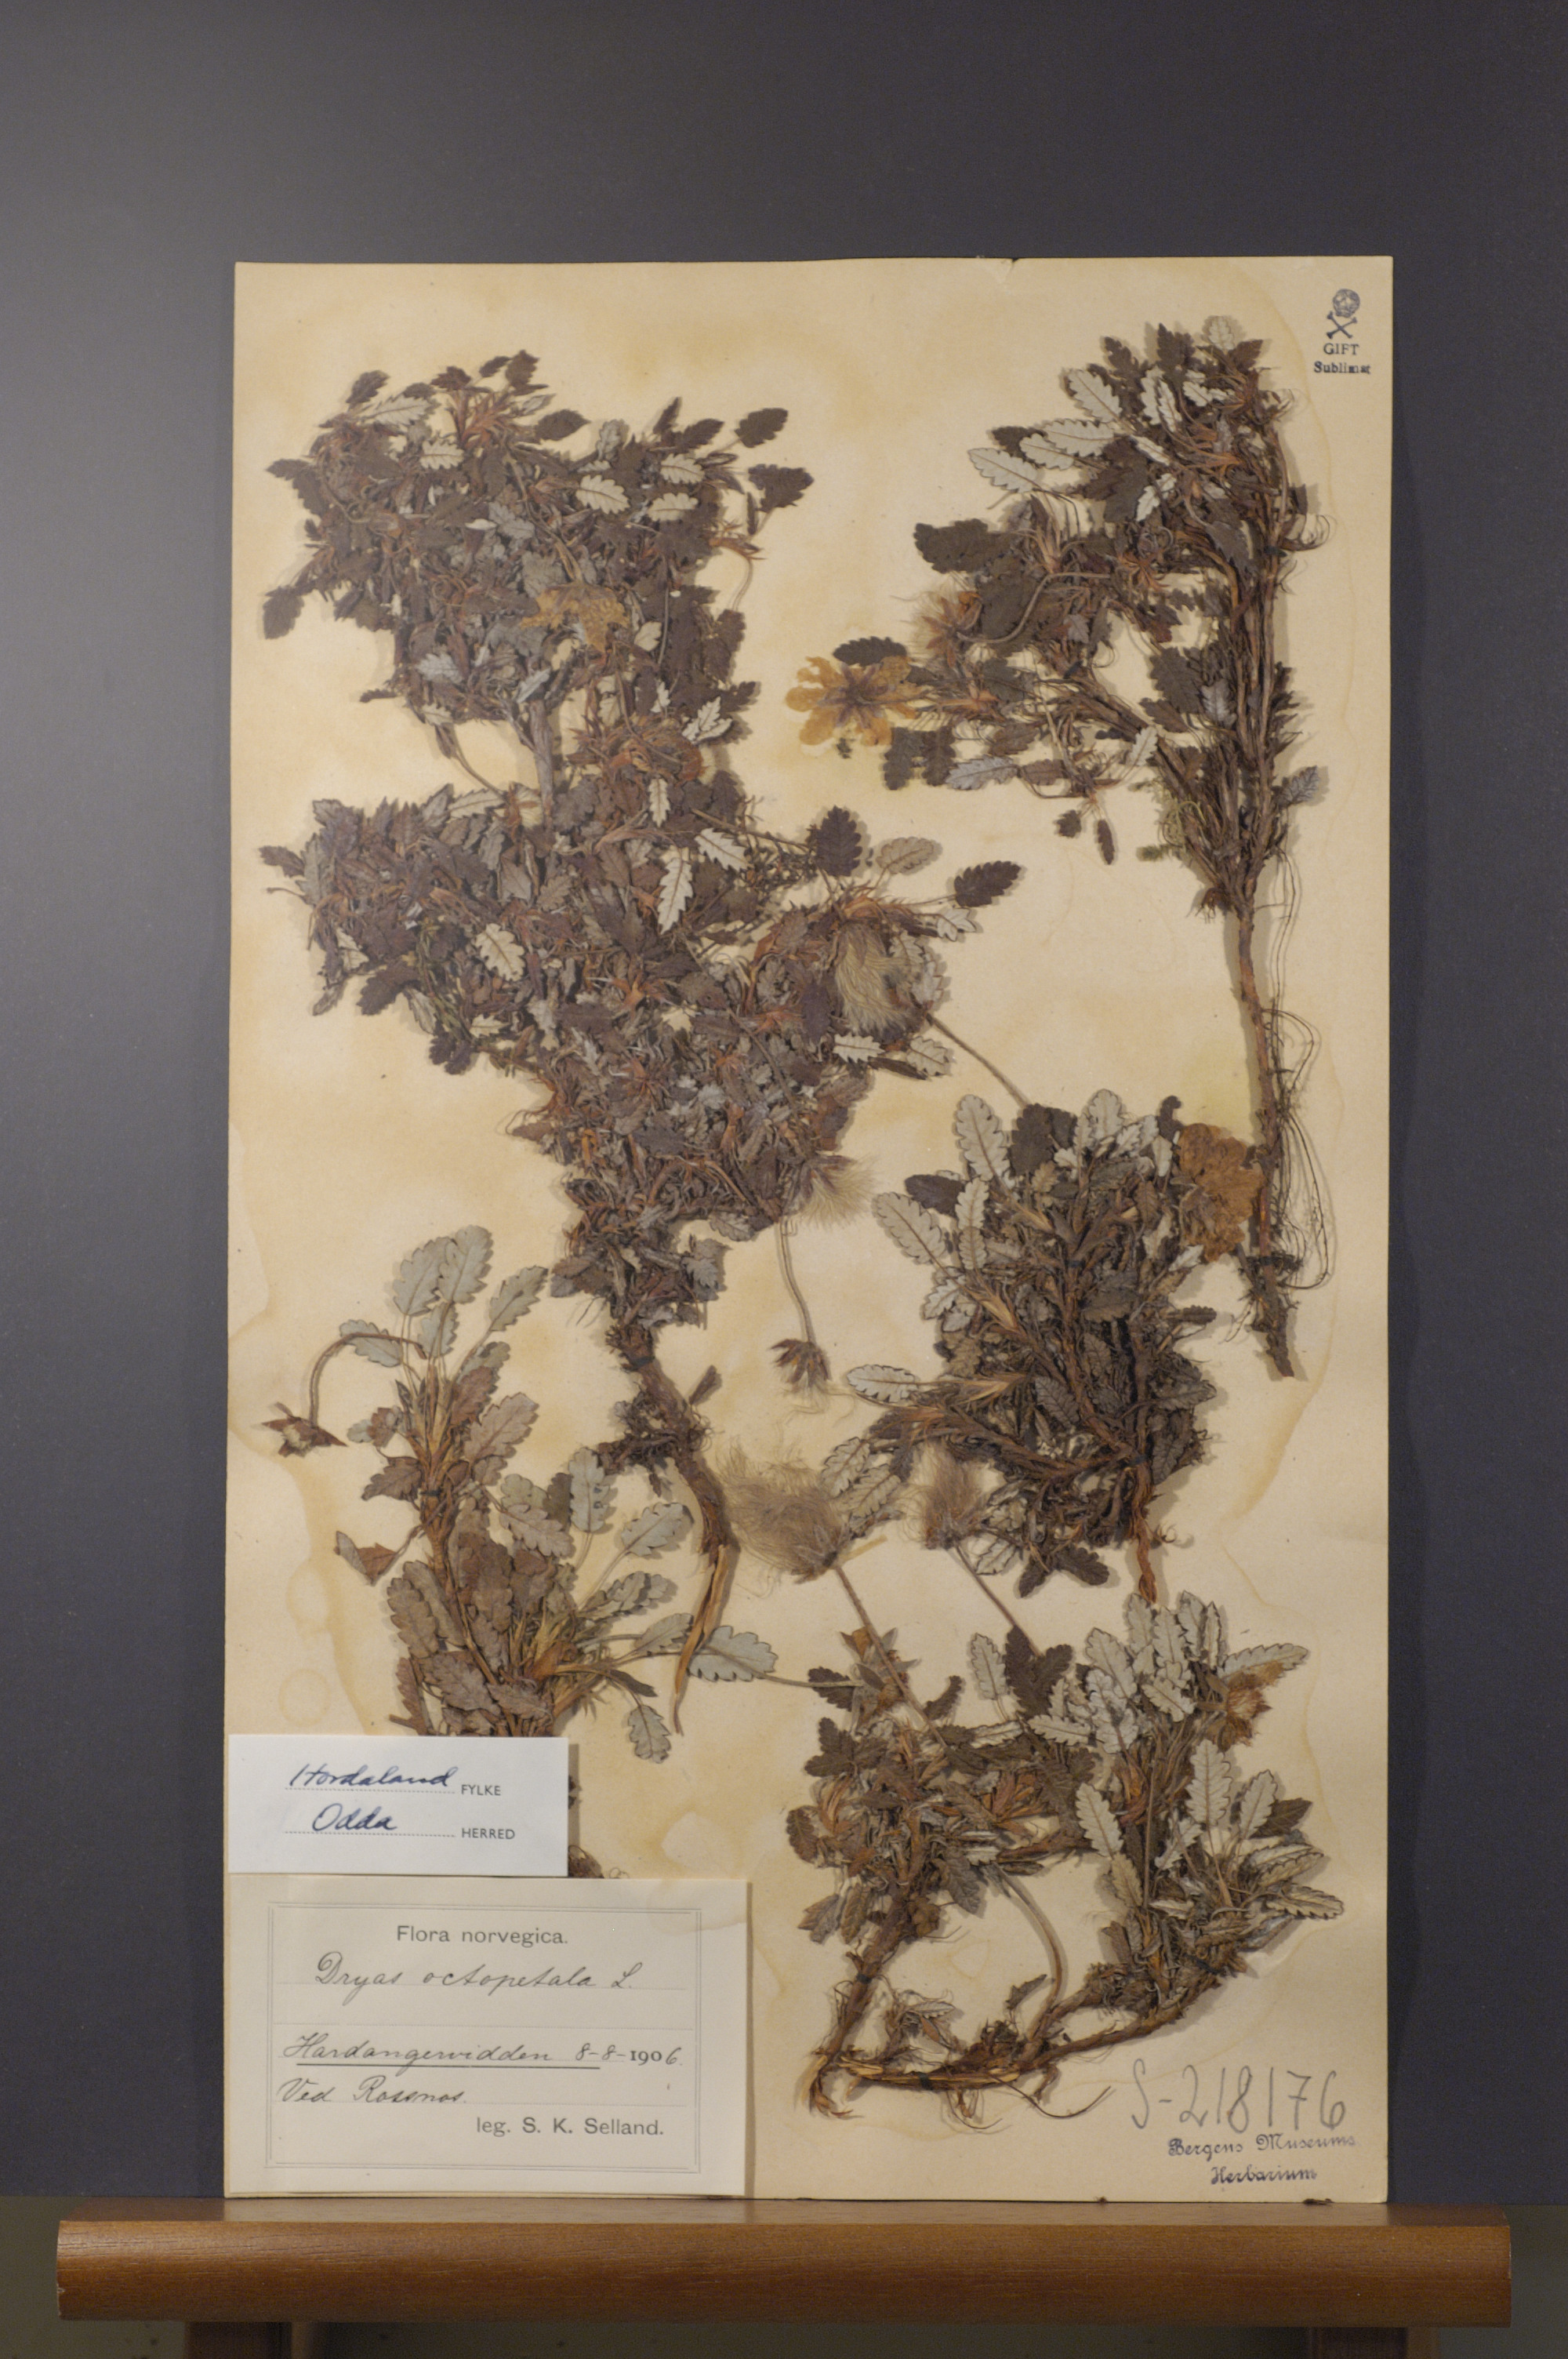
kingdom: Plantae
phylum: Tracheophyta
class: Magnoliopsida
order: Rosales
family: Rosaceae
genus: Dryas
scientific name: Dryas octopetala
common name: Eight-petal mountain-avens
